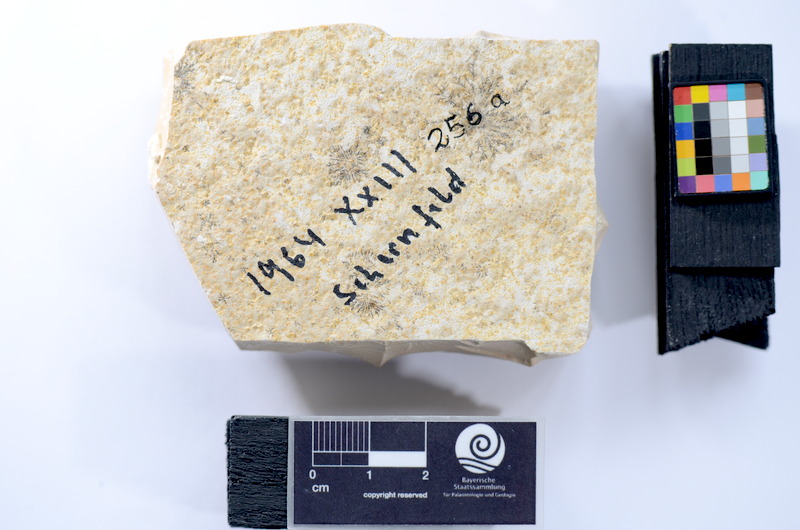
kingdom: Animalia
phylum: Chordata
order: Salmoniformes
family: Orthogonikleithridae
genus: Leptolepides
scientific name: Leptolepides
